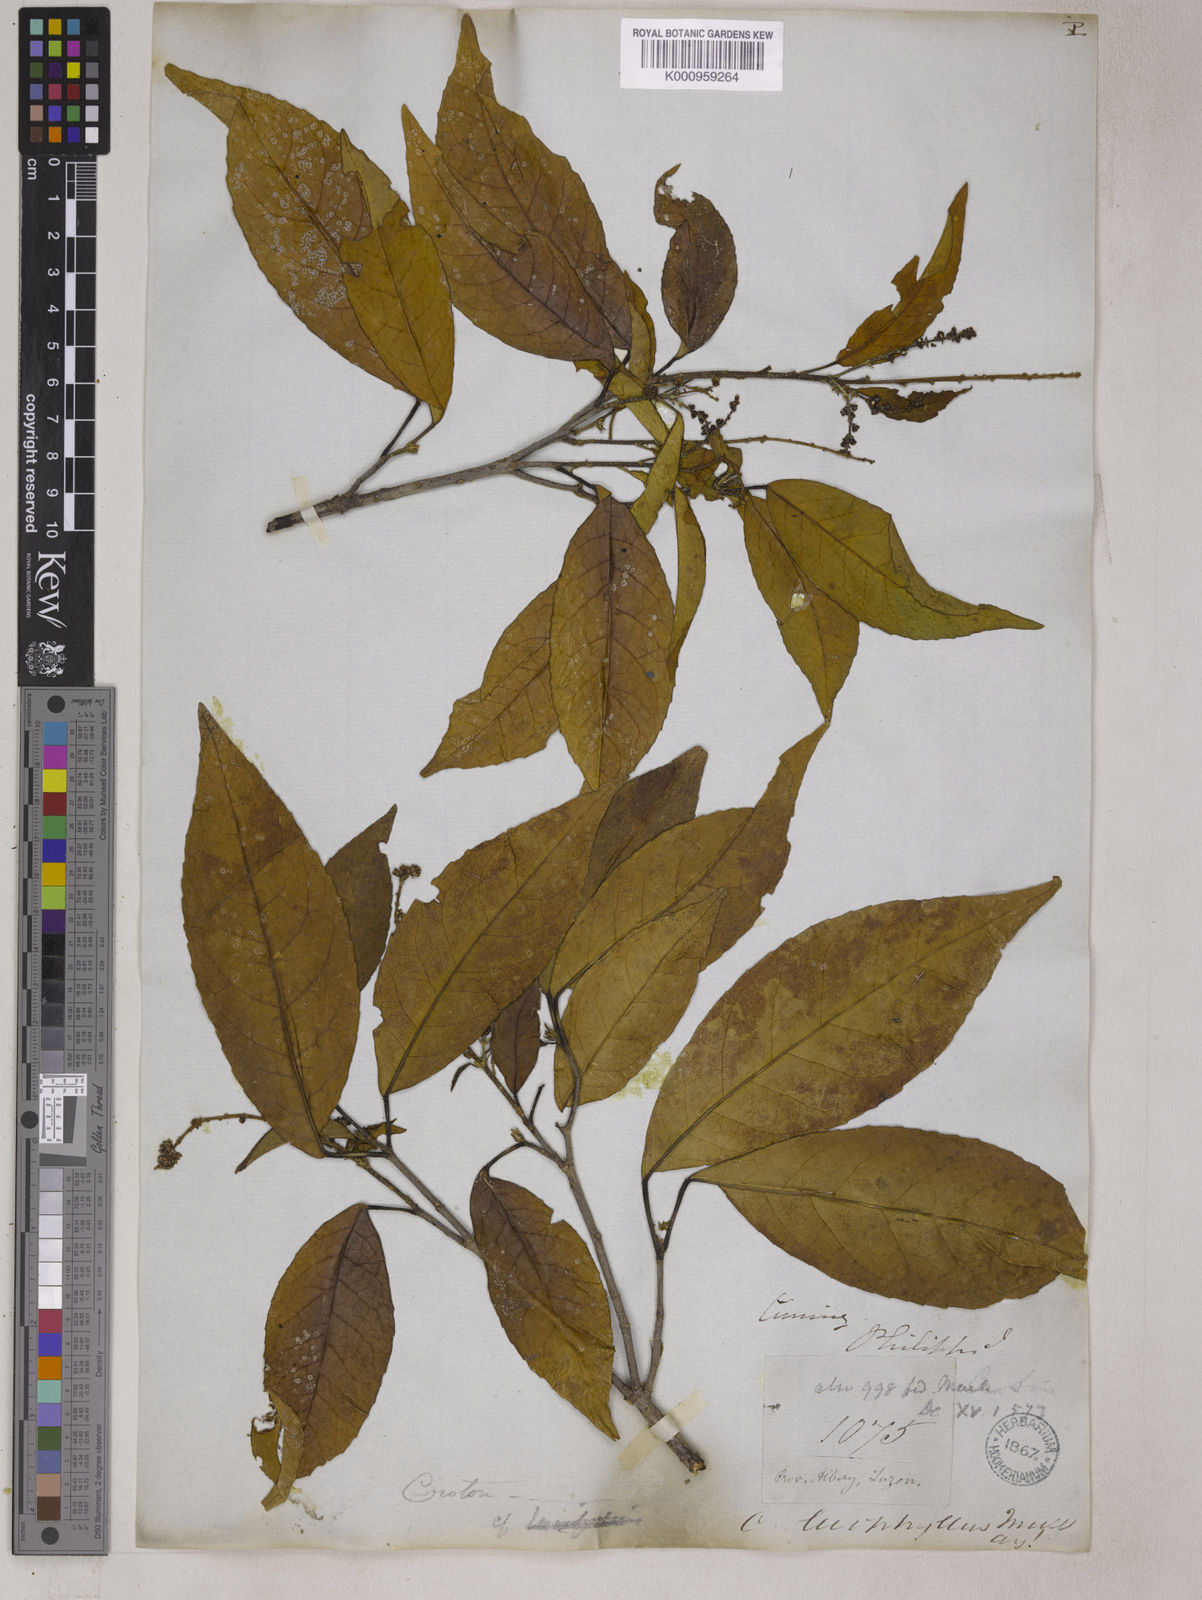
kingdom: Plantae
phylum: Tracheophyta
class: Magnoliopsida
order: Malpighiales
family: Euphorbiaceae
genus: Croton
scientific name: Croton
